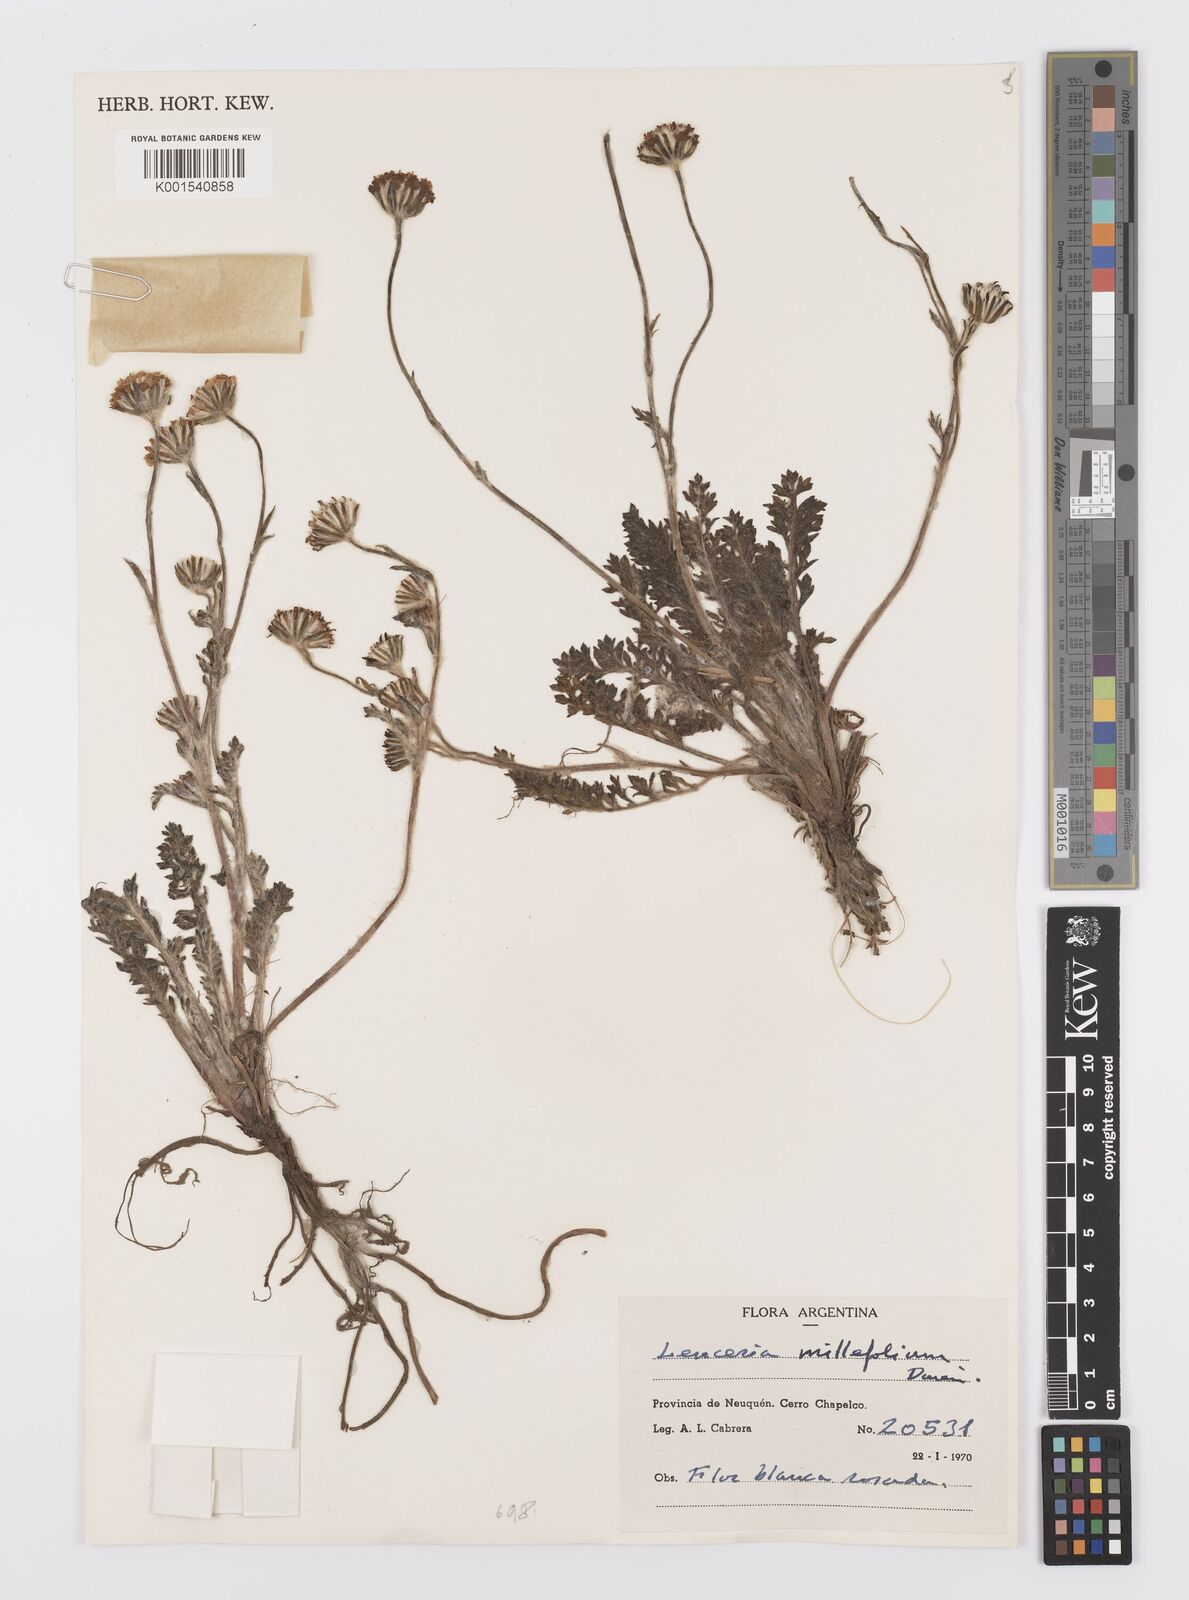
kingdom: Plantae
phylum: Tracheophyta
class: Magnoliopsida
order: Asterales
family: Asteraceae
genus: Leucheria
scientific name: Leucheria millefolium
